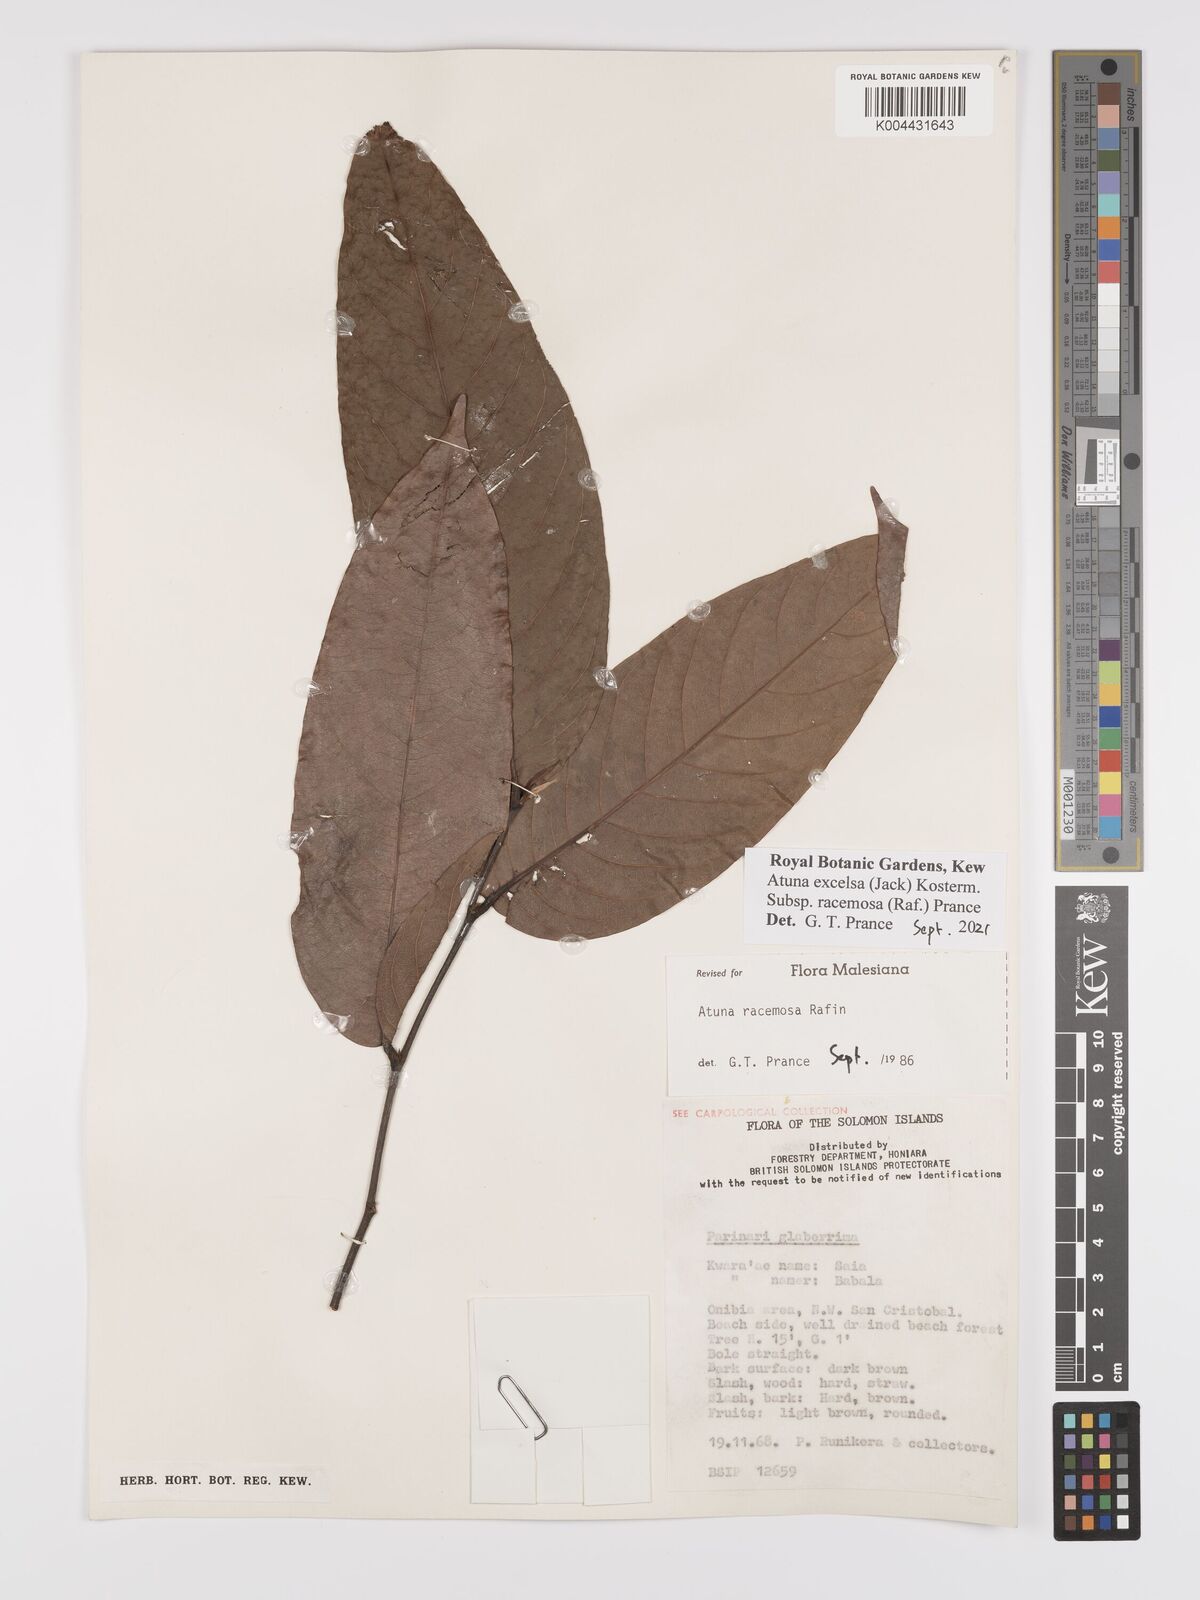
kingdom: Plantae
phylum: Tracheophyta
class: Magnoliopsida
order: Malpighiales
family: Chrysobalanaceae
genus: Atuna
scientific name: Atuna
